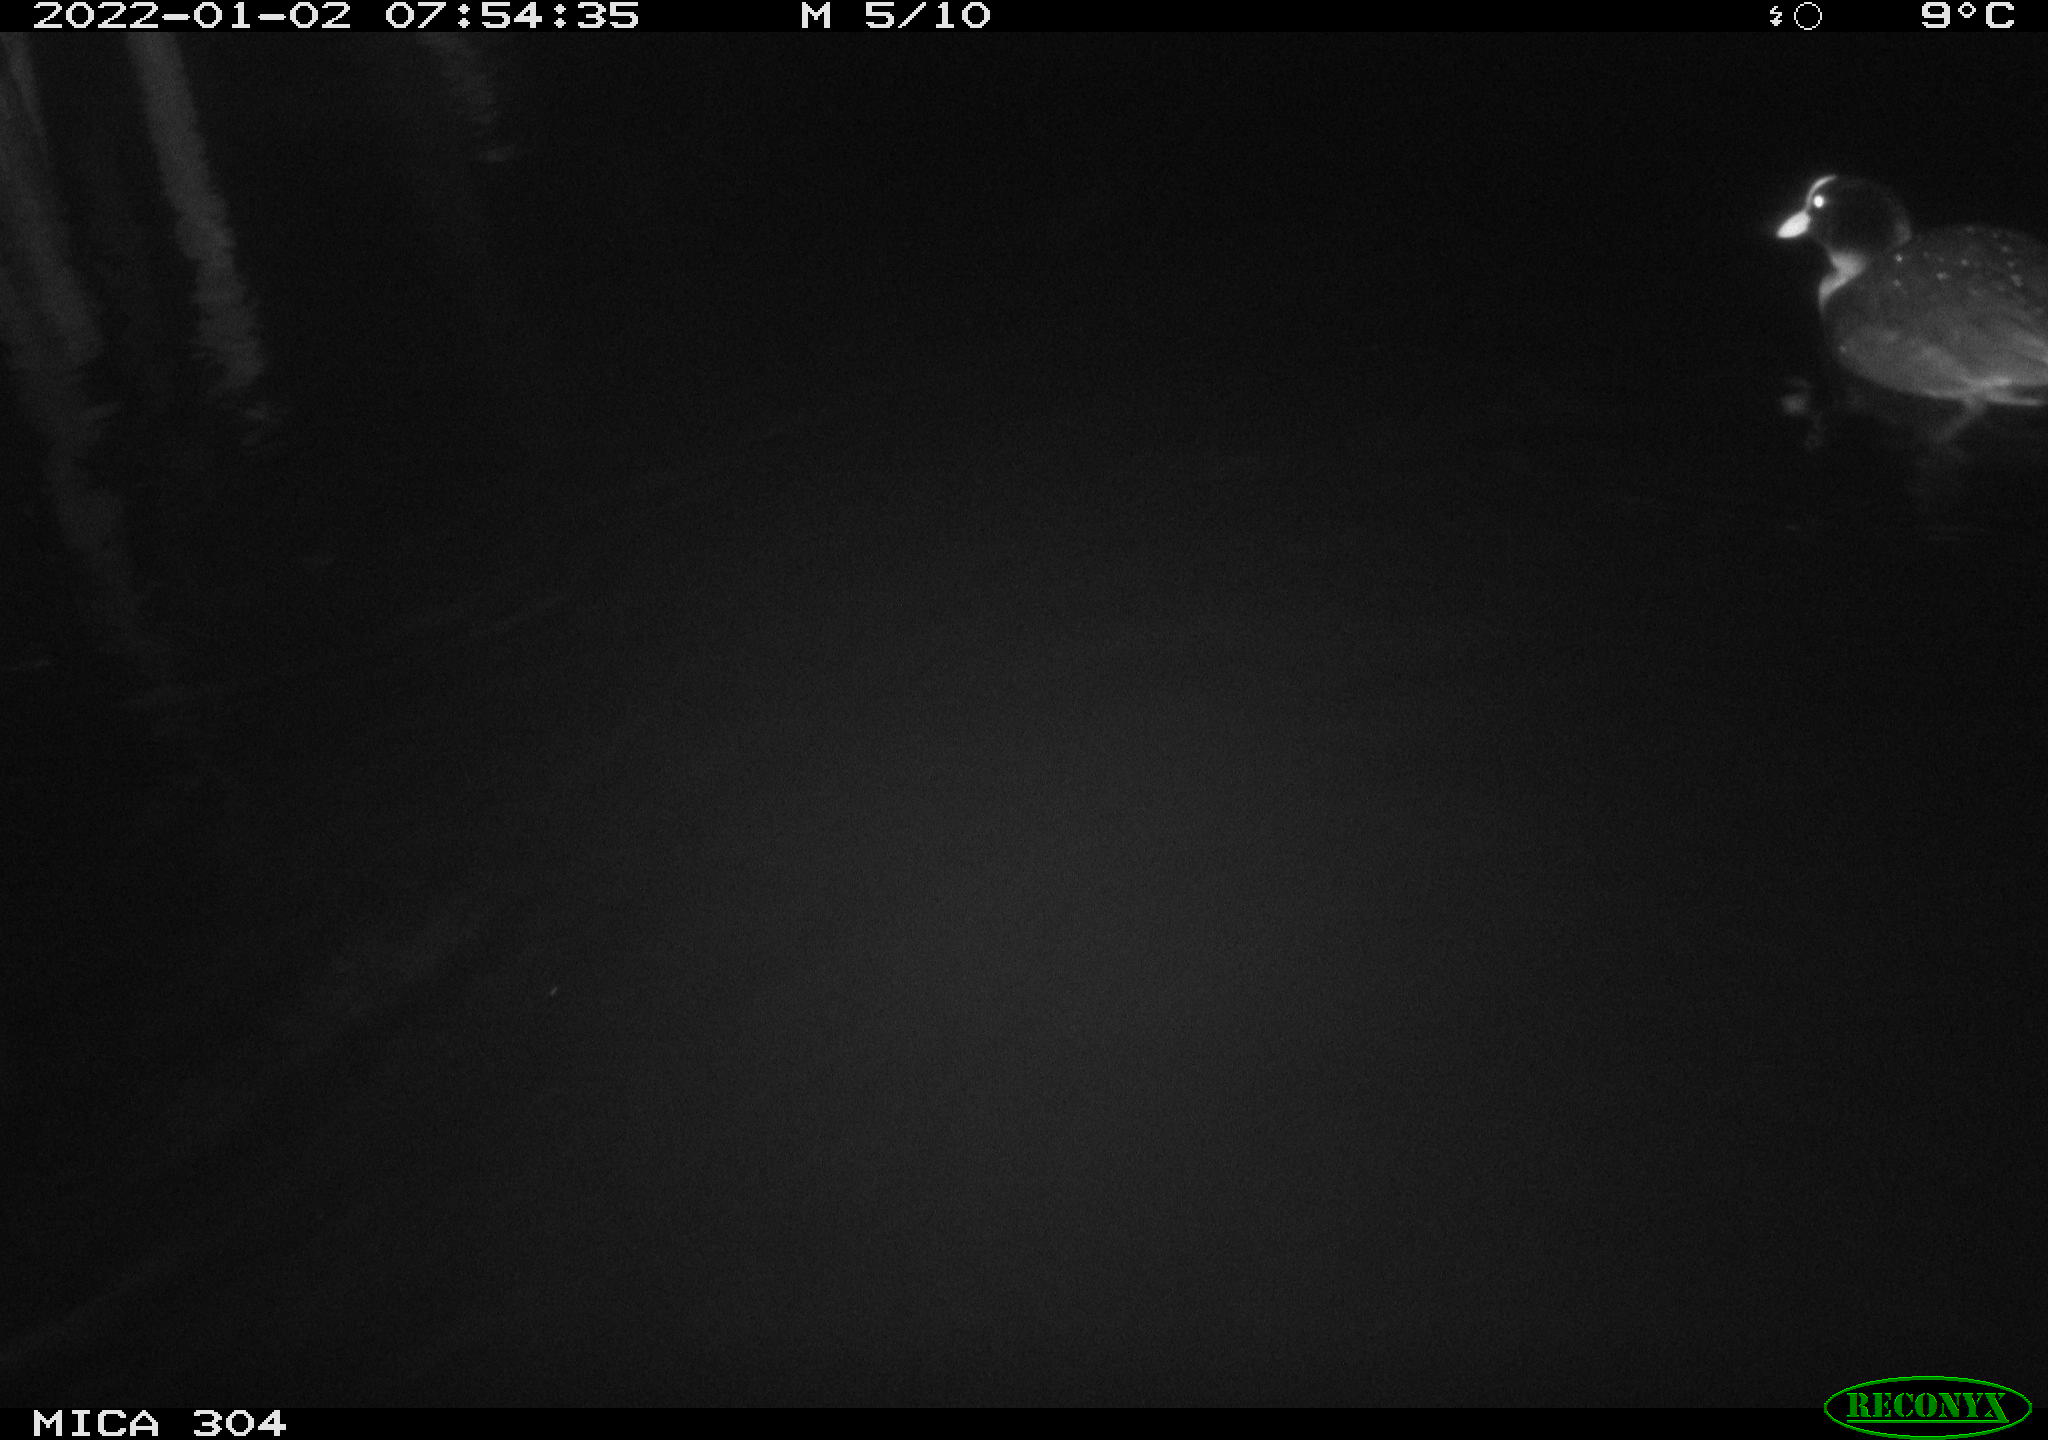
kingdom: Animalia
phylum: Chordata
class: Aves
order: Anseriformes
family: Anatidae
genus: Anas
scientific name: Anas
